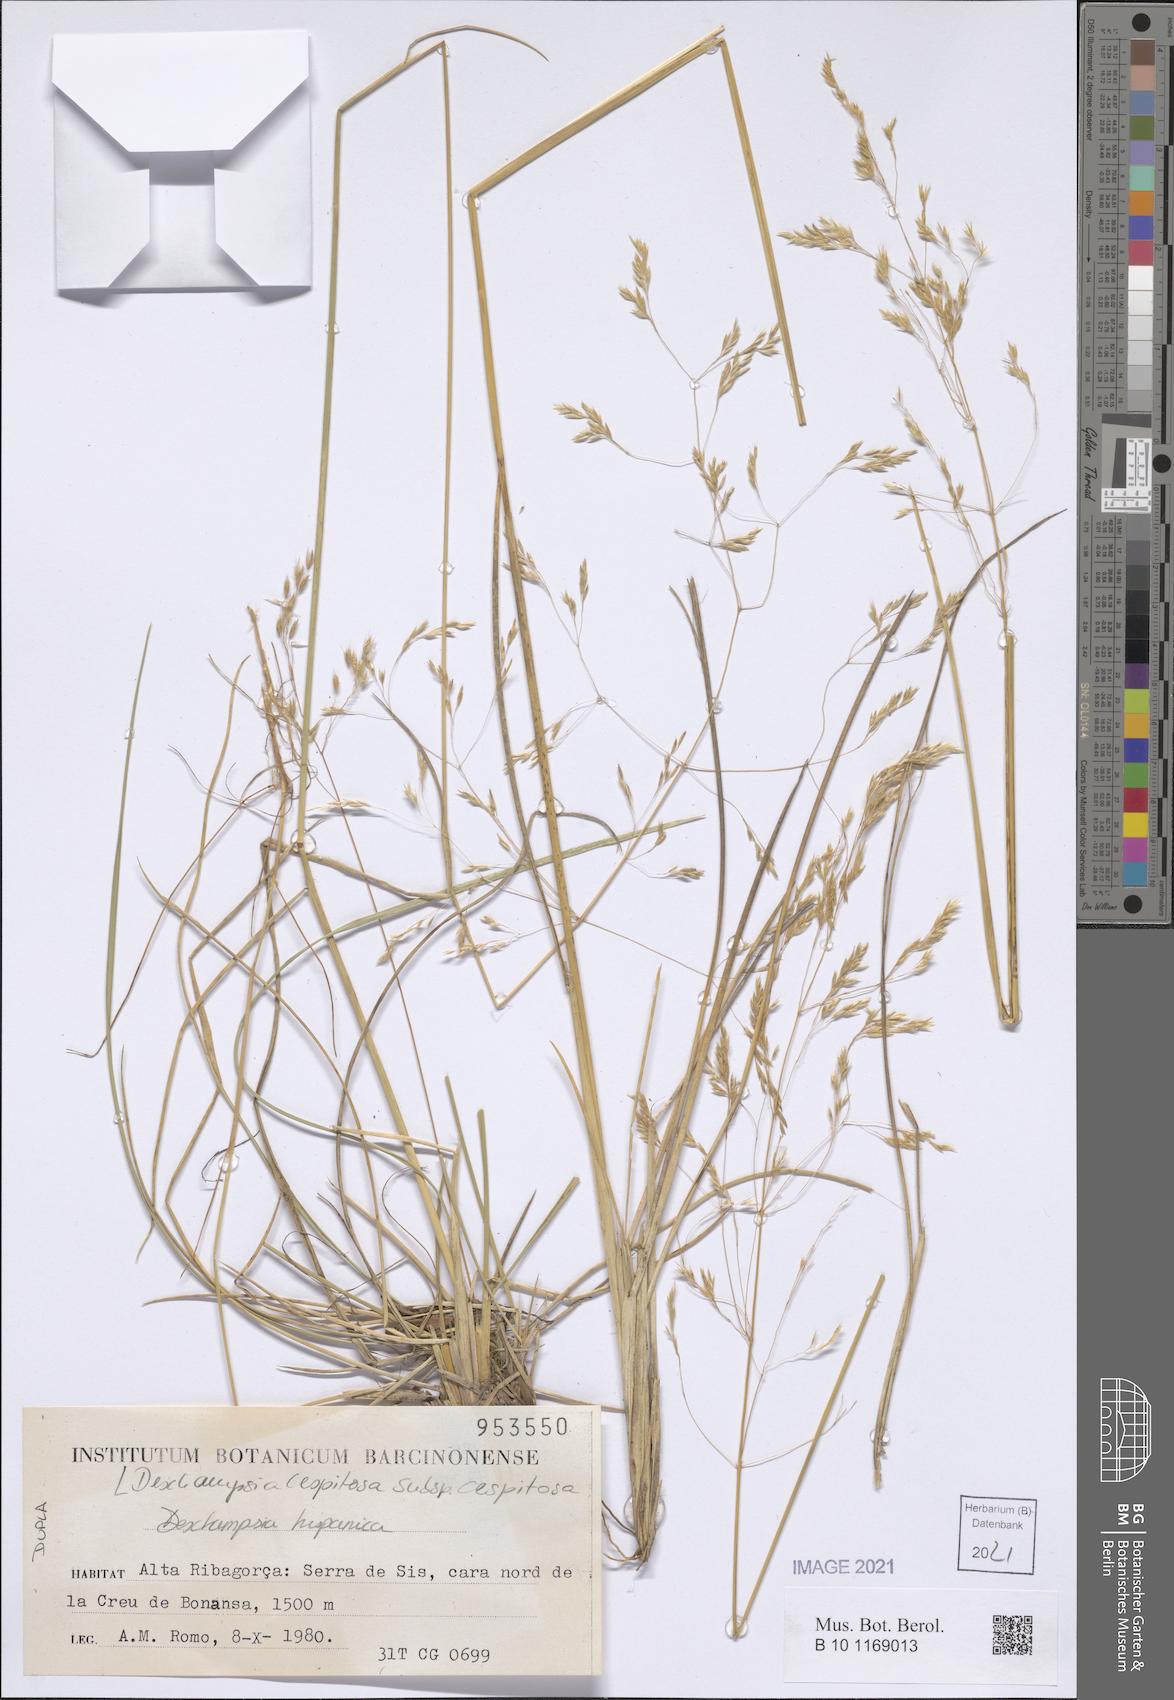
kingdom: Plantae
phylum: Tracheophyta
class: Liliopsida
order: Poales
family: Poaceae
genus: Deschampsia
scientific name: Deschampsia cespitosa
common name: Tufted hair-grass
